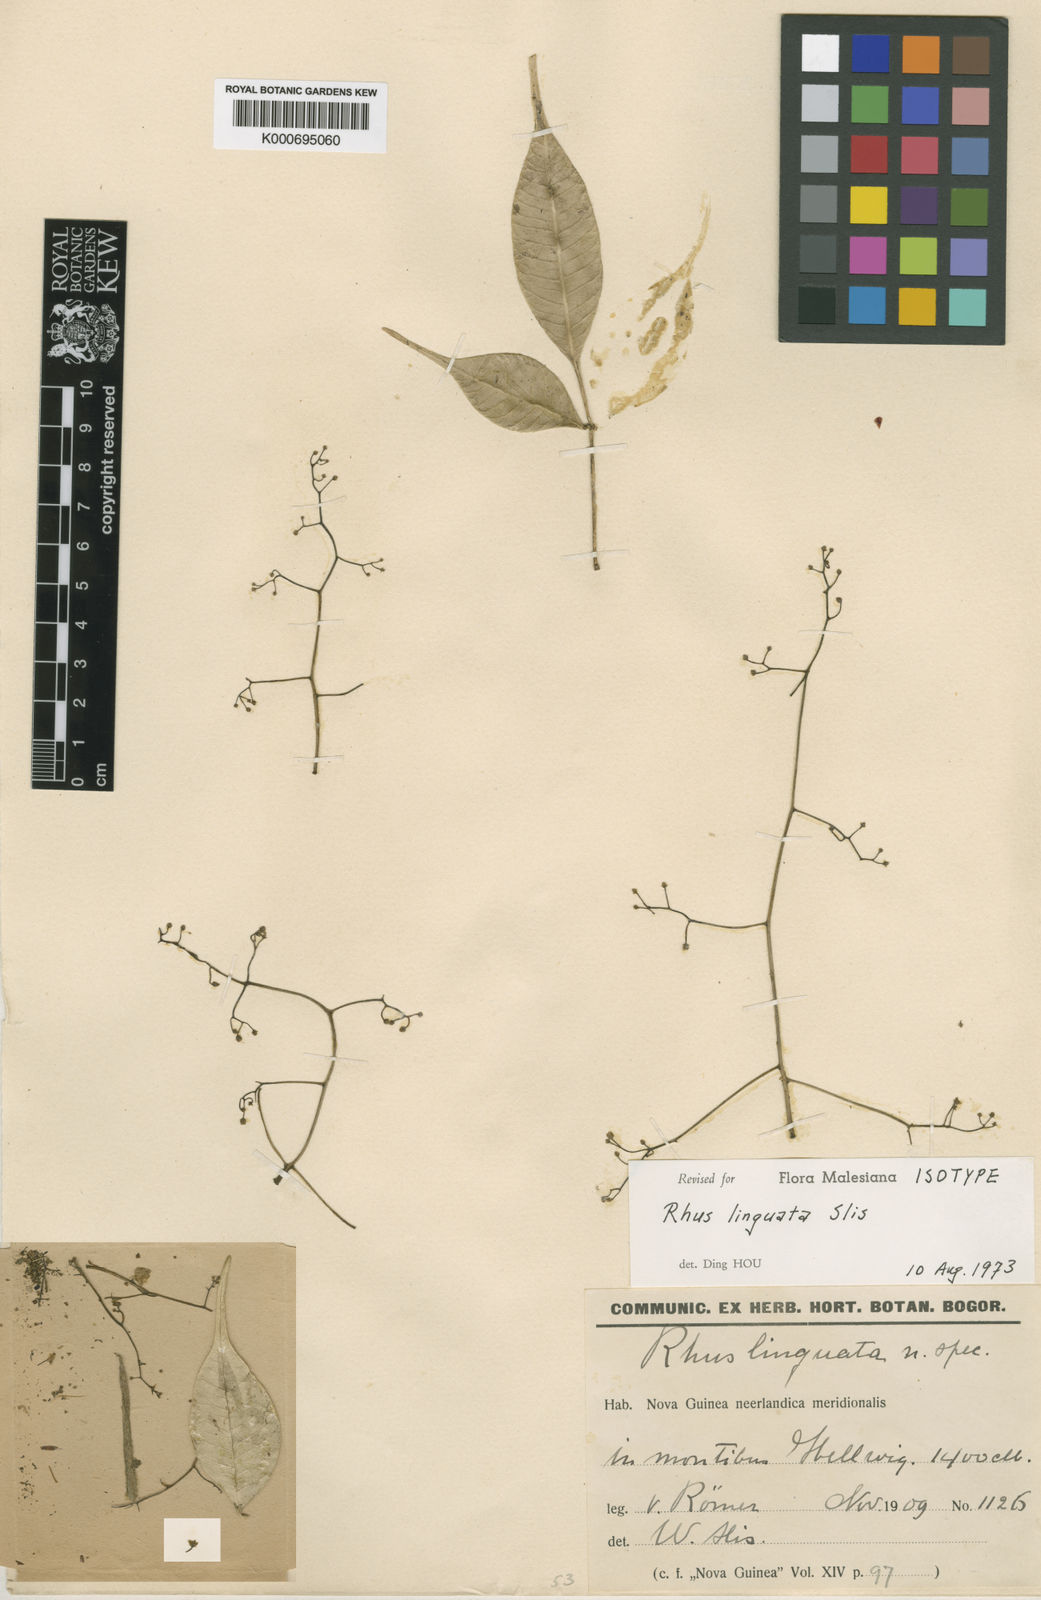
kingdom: Plantae
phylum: Tracheophyta
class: Magnoliopsida
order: Sapindales
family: Anacardiaceae
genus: Rhus
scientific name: Rhus linguata
